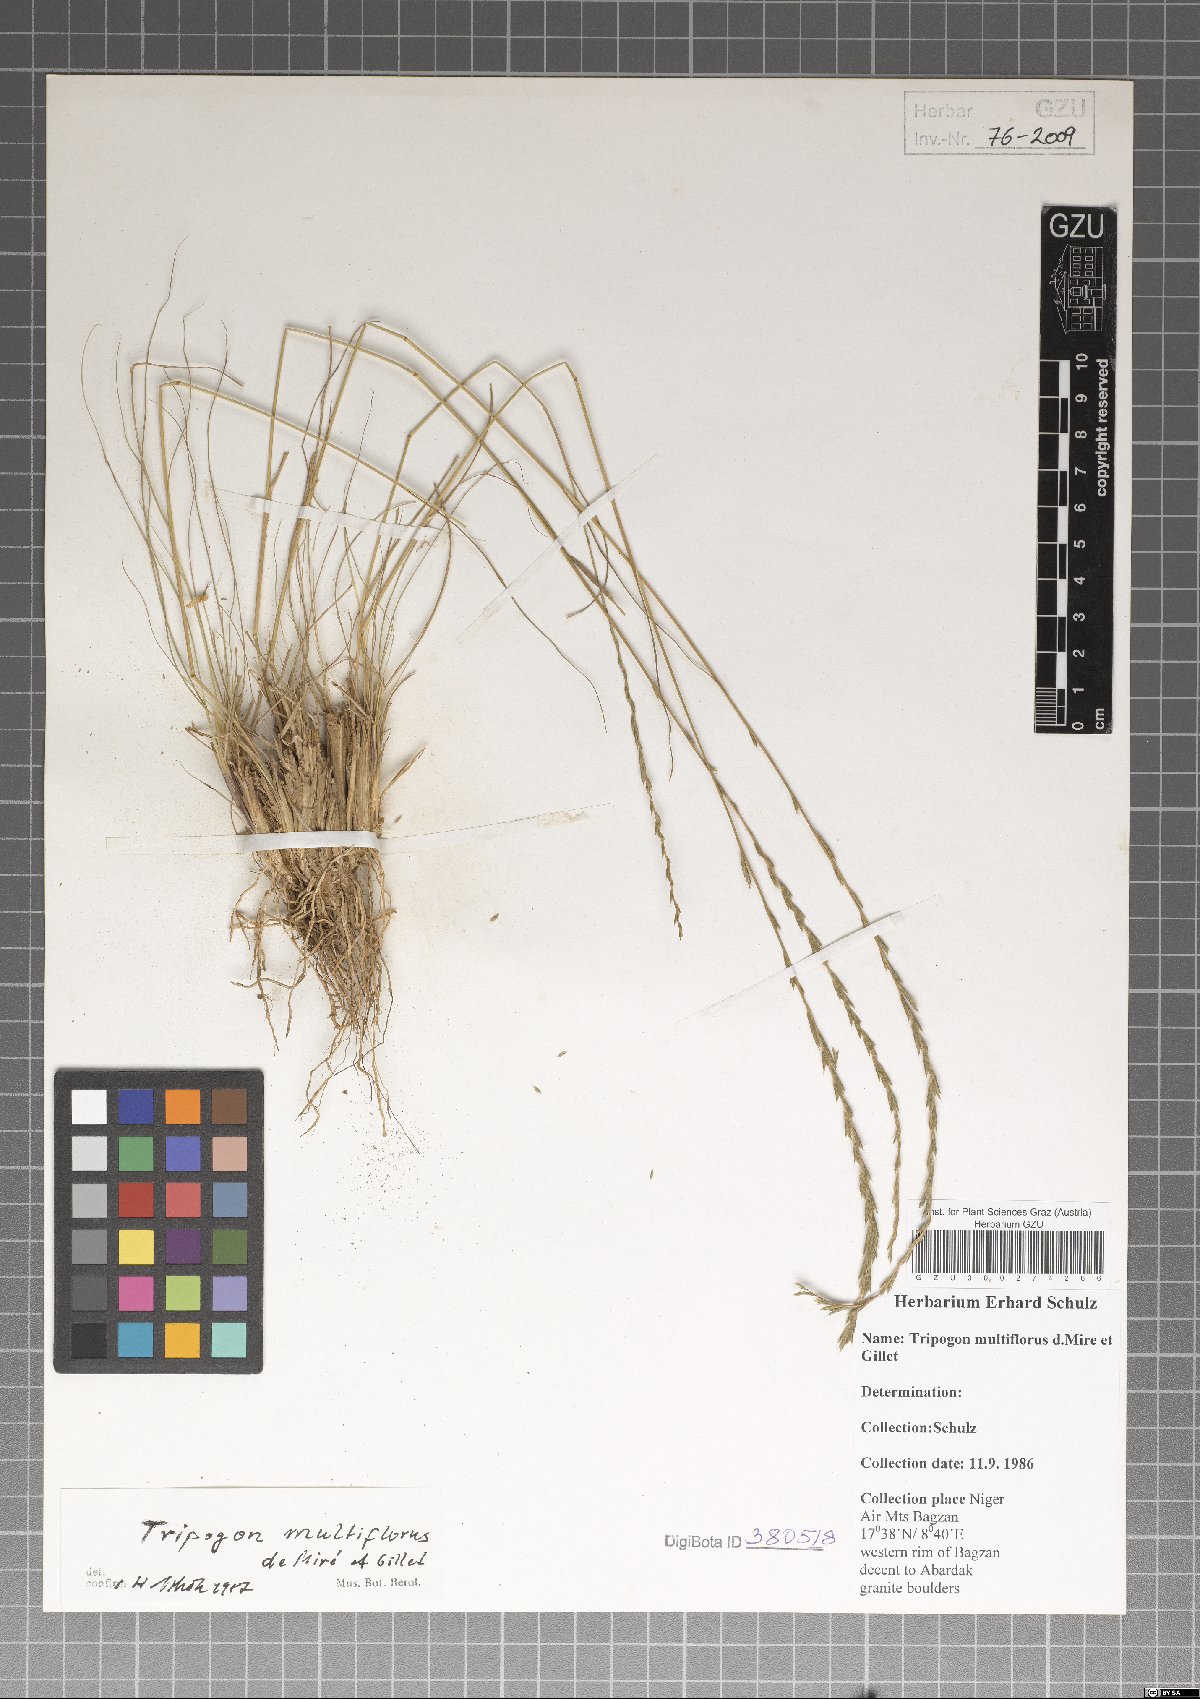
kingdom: Plantae
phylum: Tracheophyta
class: Liliopsida
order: Poales
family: Poaceae
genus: Tripogon
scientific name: Tripogon multiflorus
